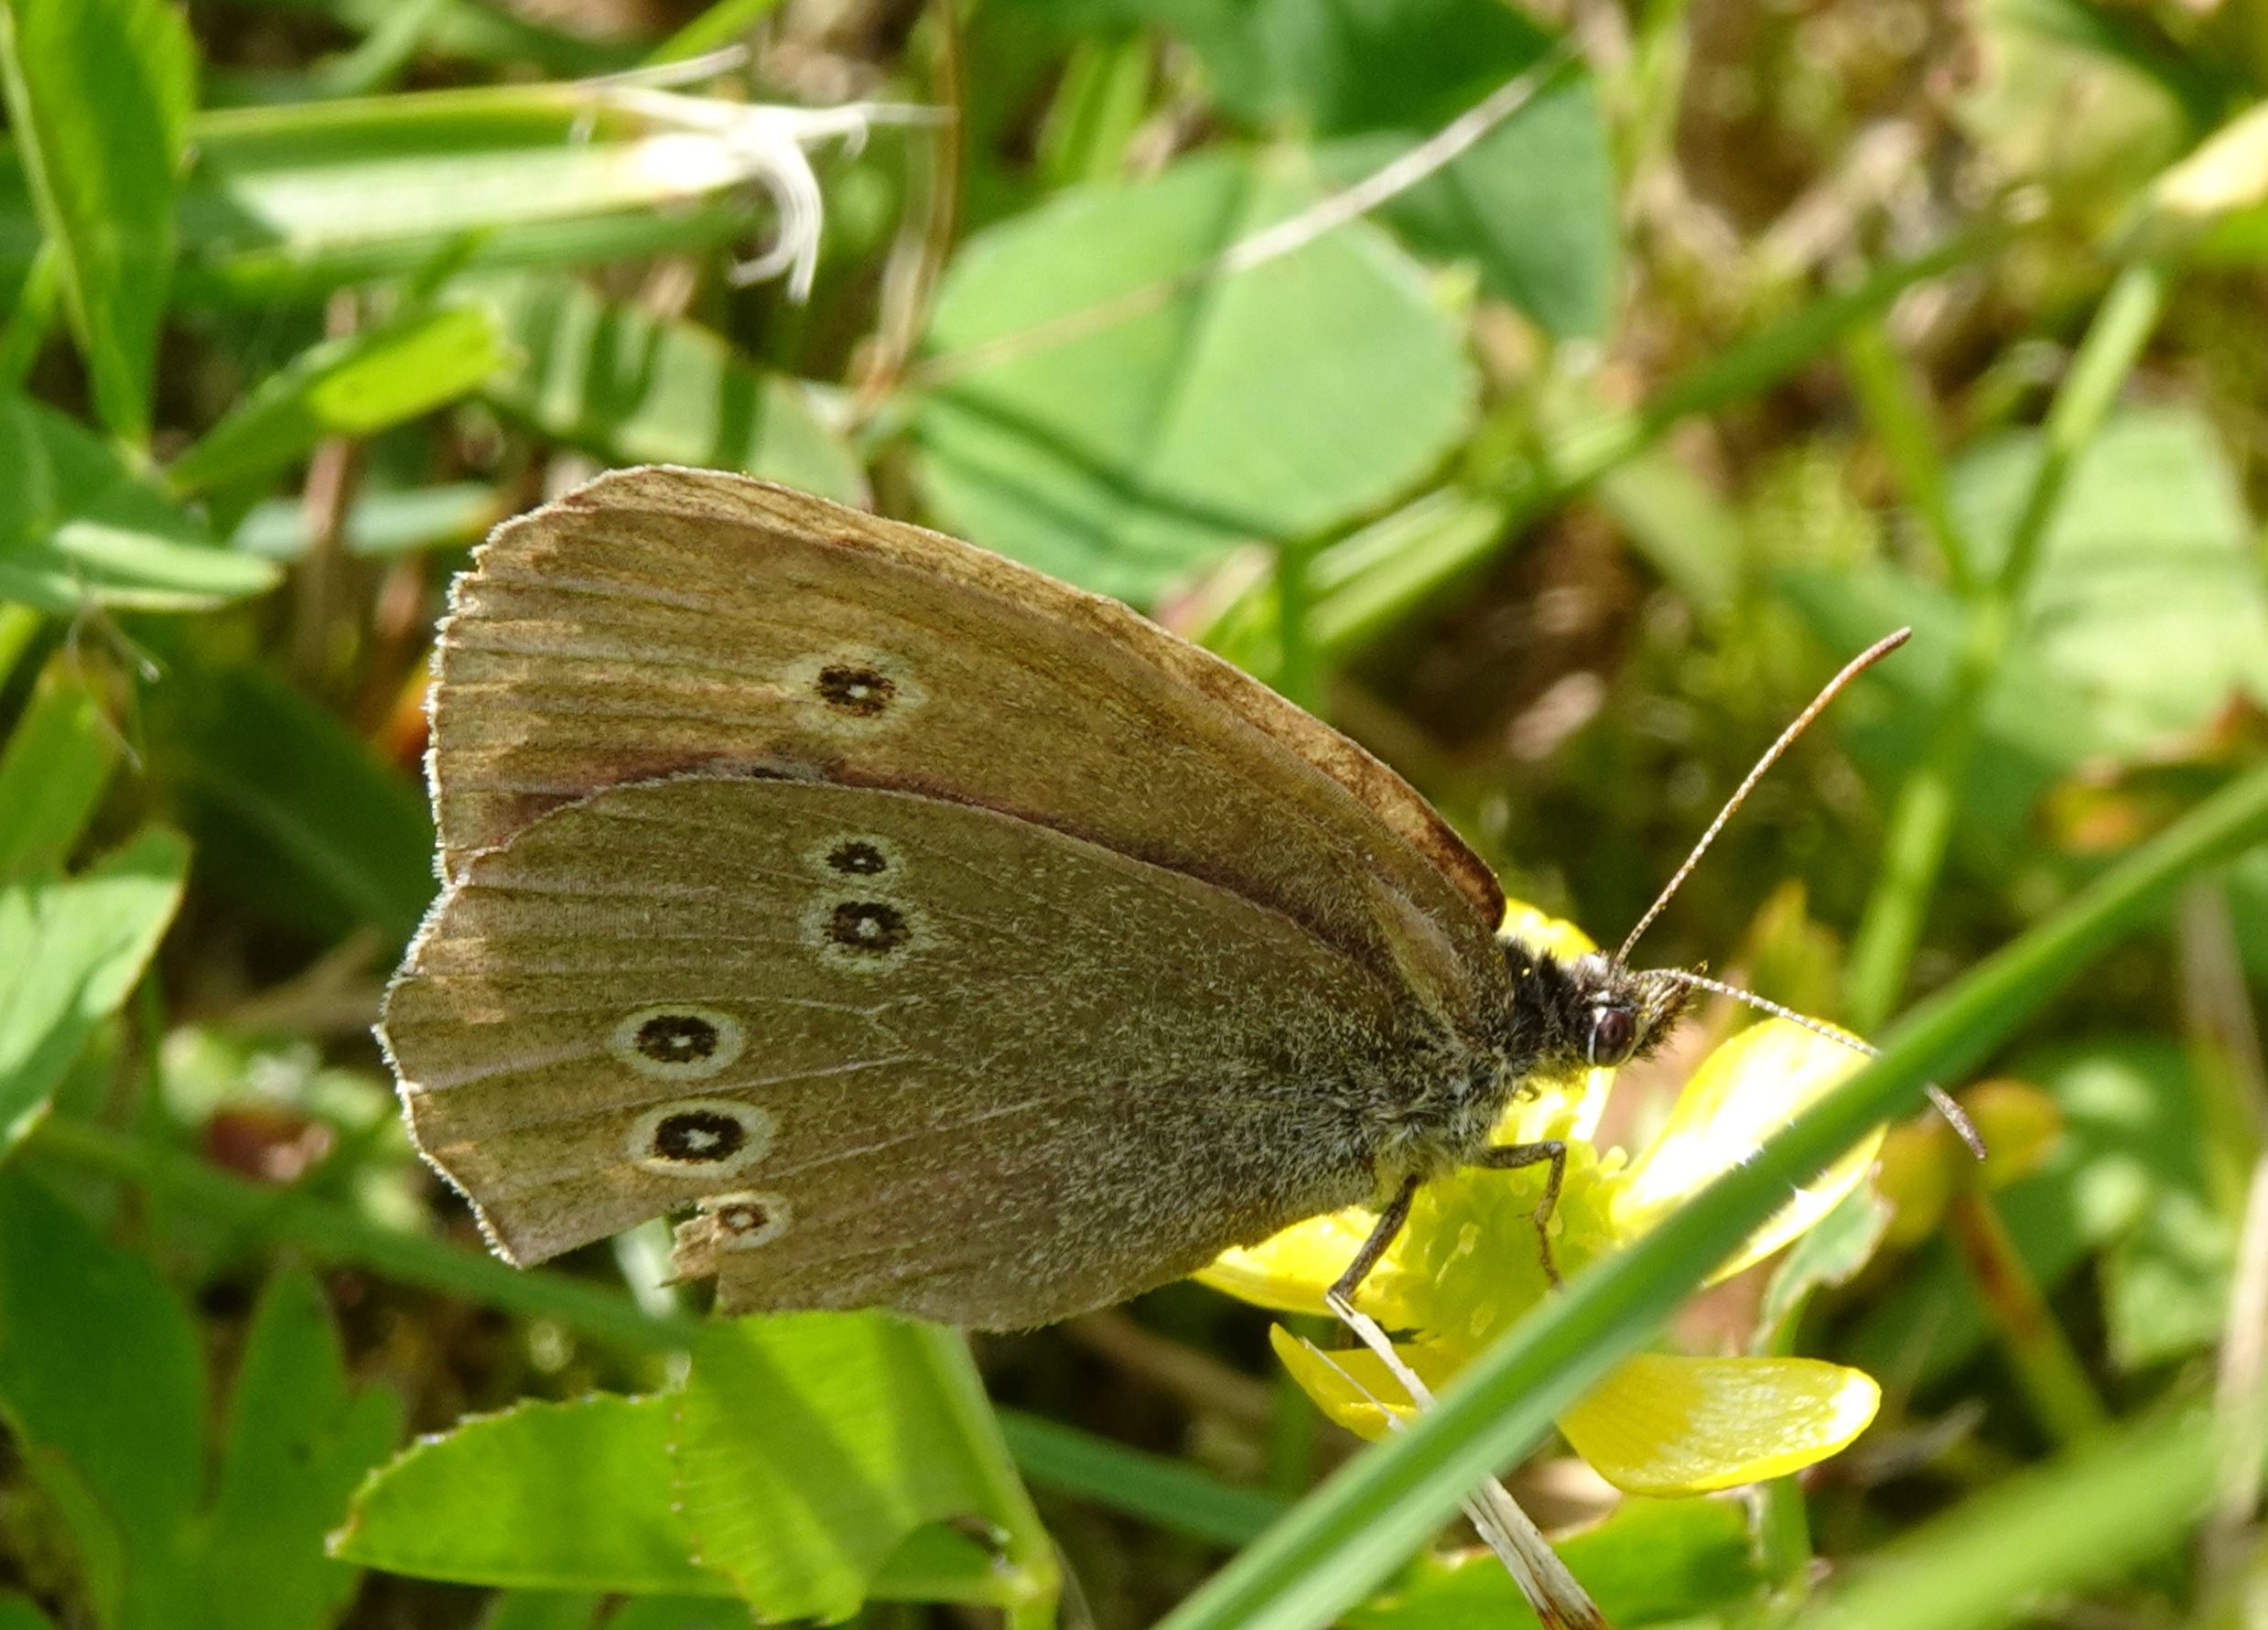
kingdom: Animalia
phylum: Arthropoda
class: Insecta
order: Lepidoptera
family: Nymphalidae
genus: Aphantopus
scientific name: Aphantopus hyperantus
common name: Engrandøje
